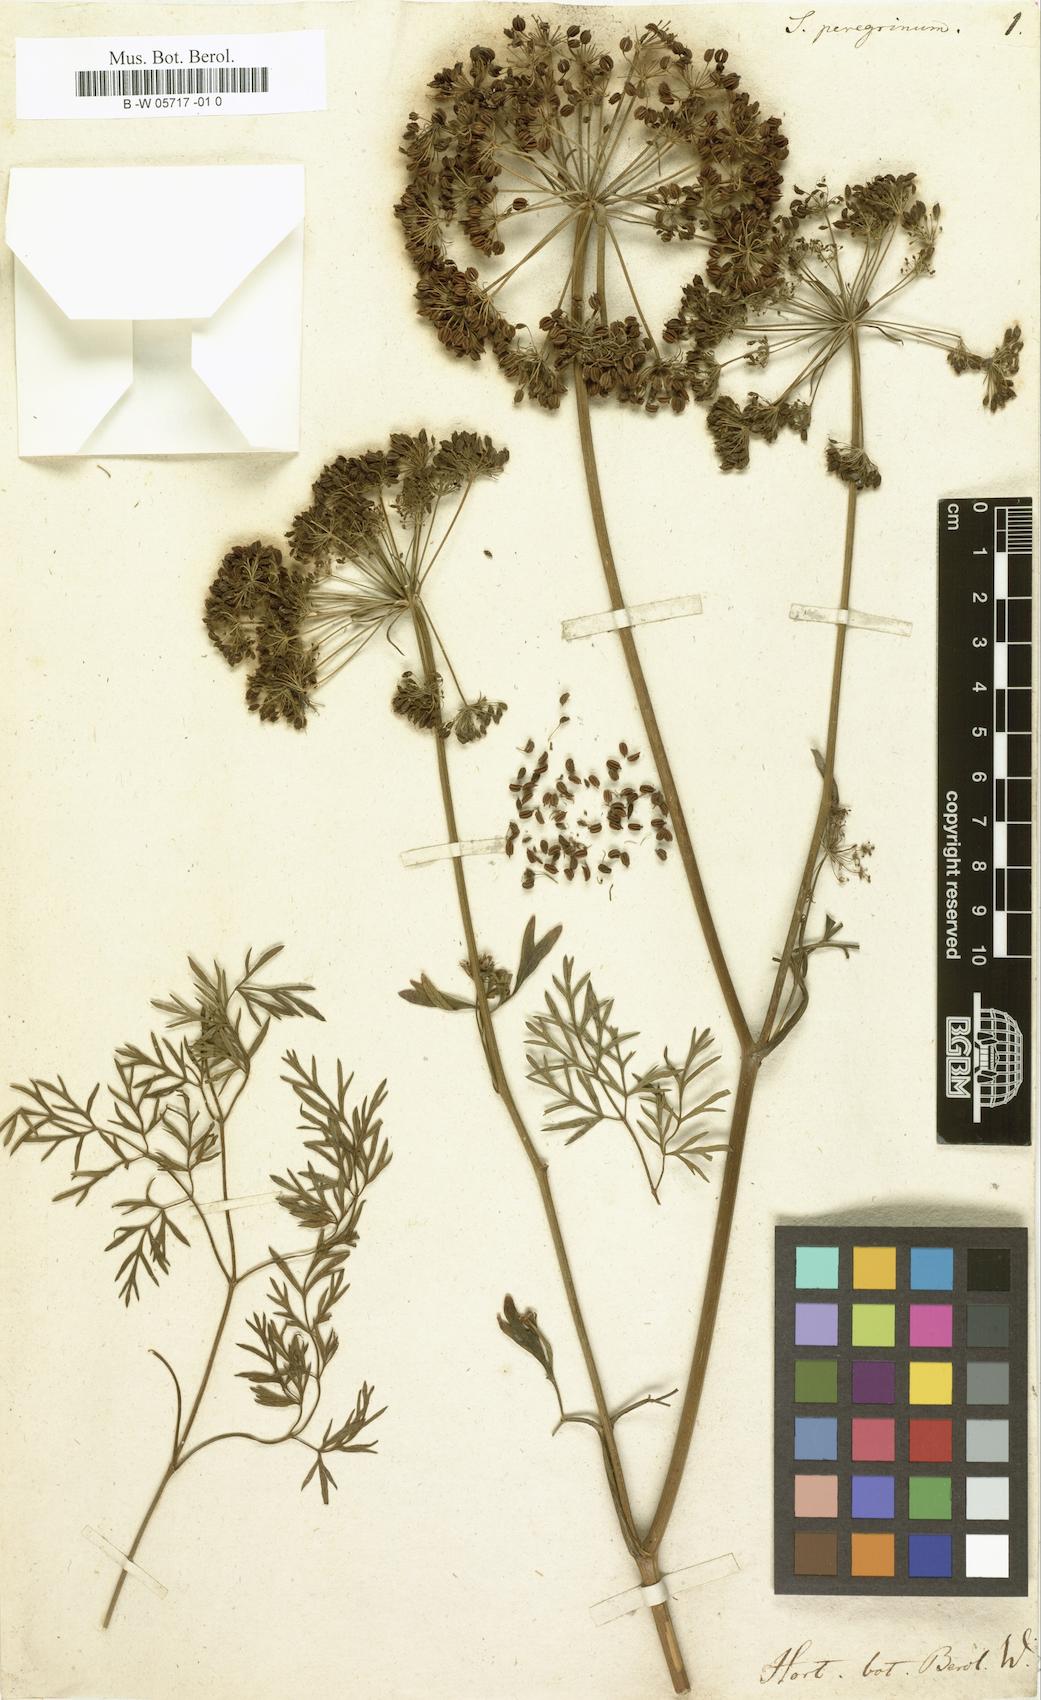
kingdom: Plantae
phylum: Tracheophyta
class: Magnoliopsida
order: Apiales
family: Apiaceae
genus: Carum
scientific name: Carum appuanum
